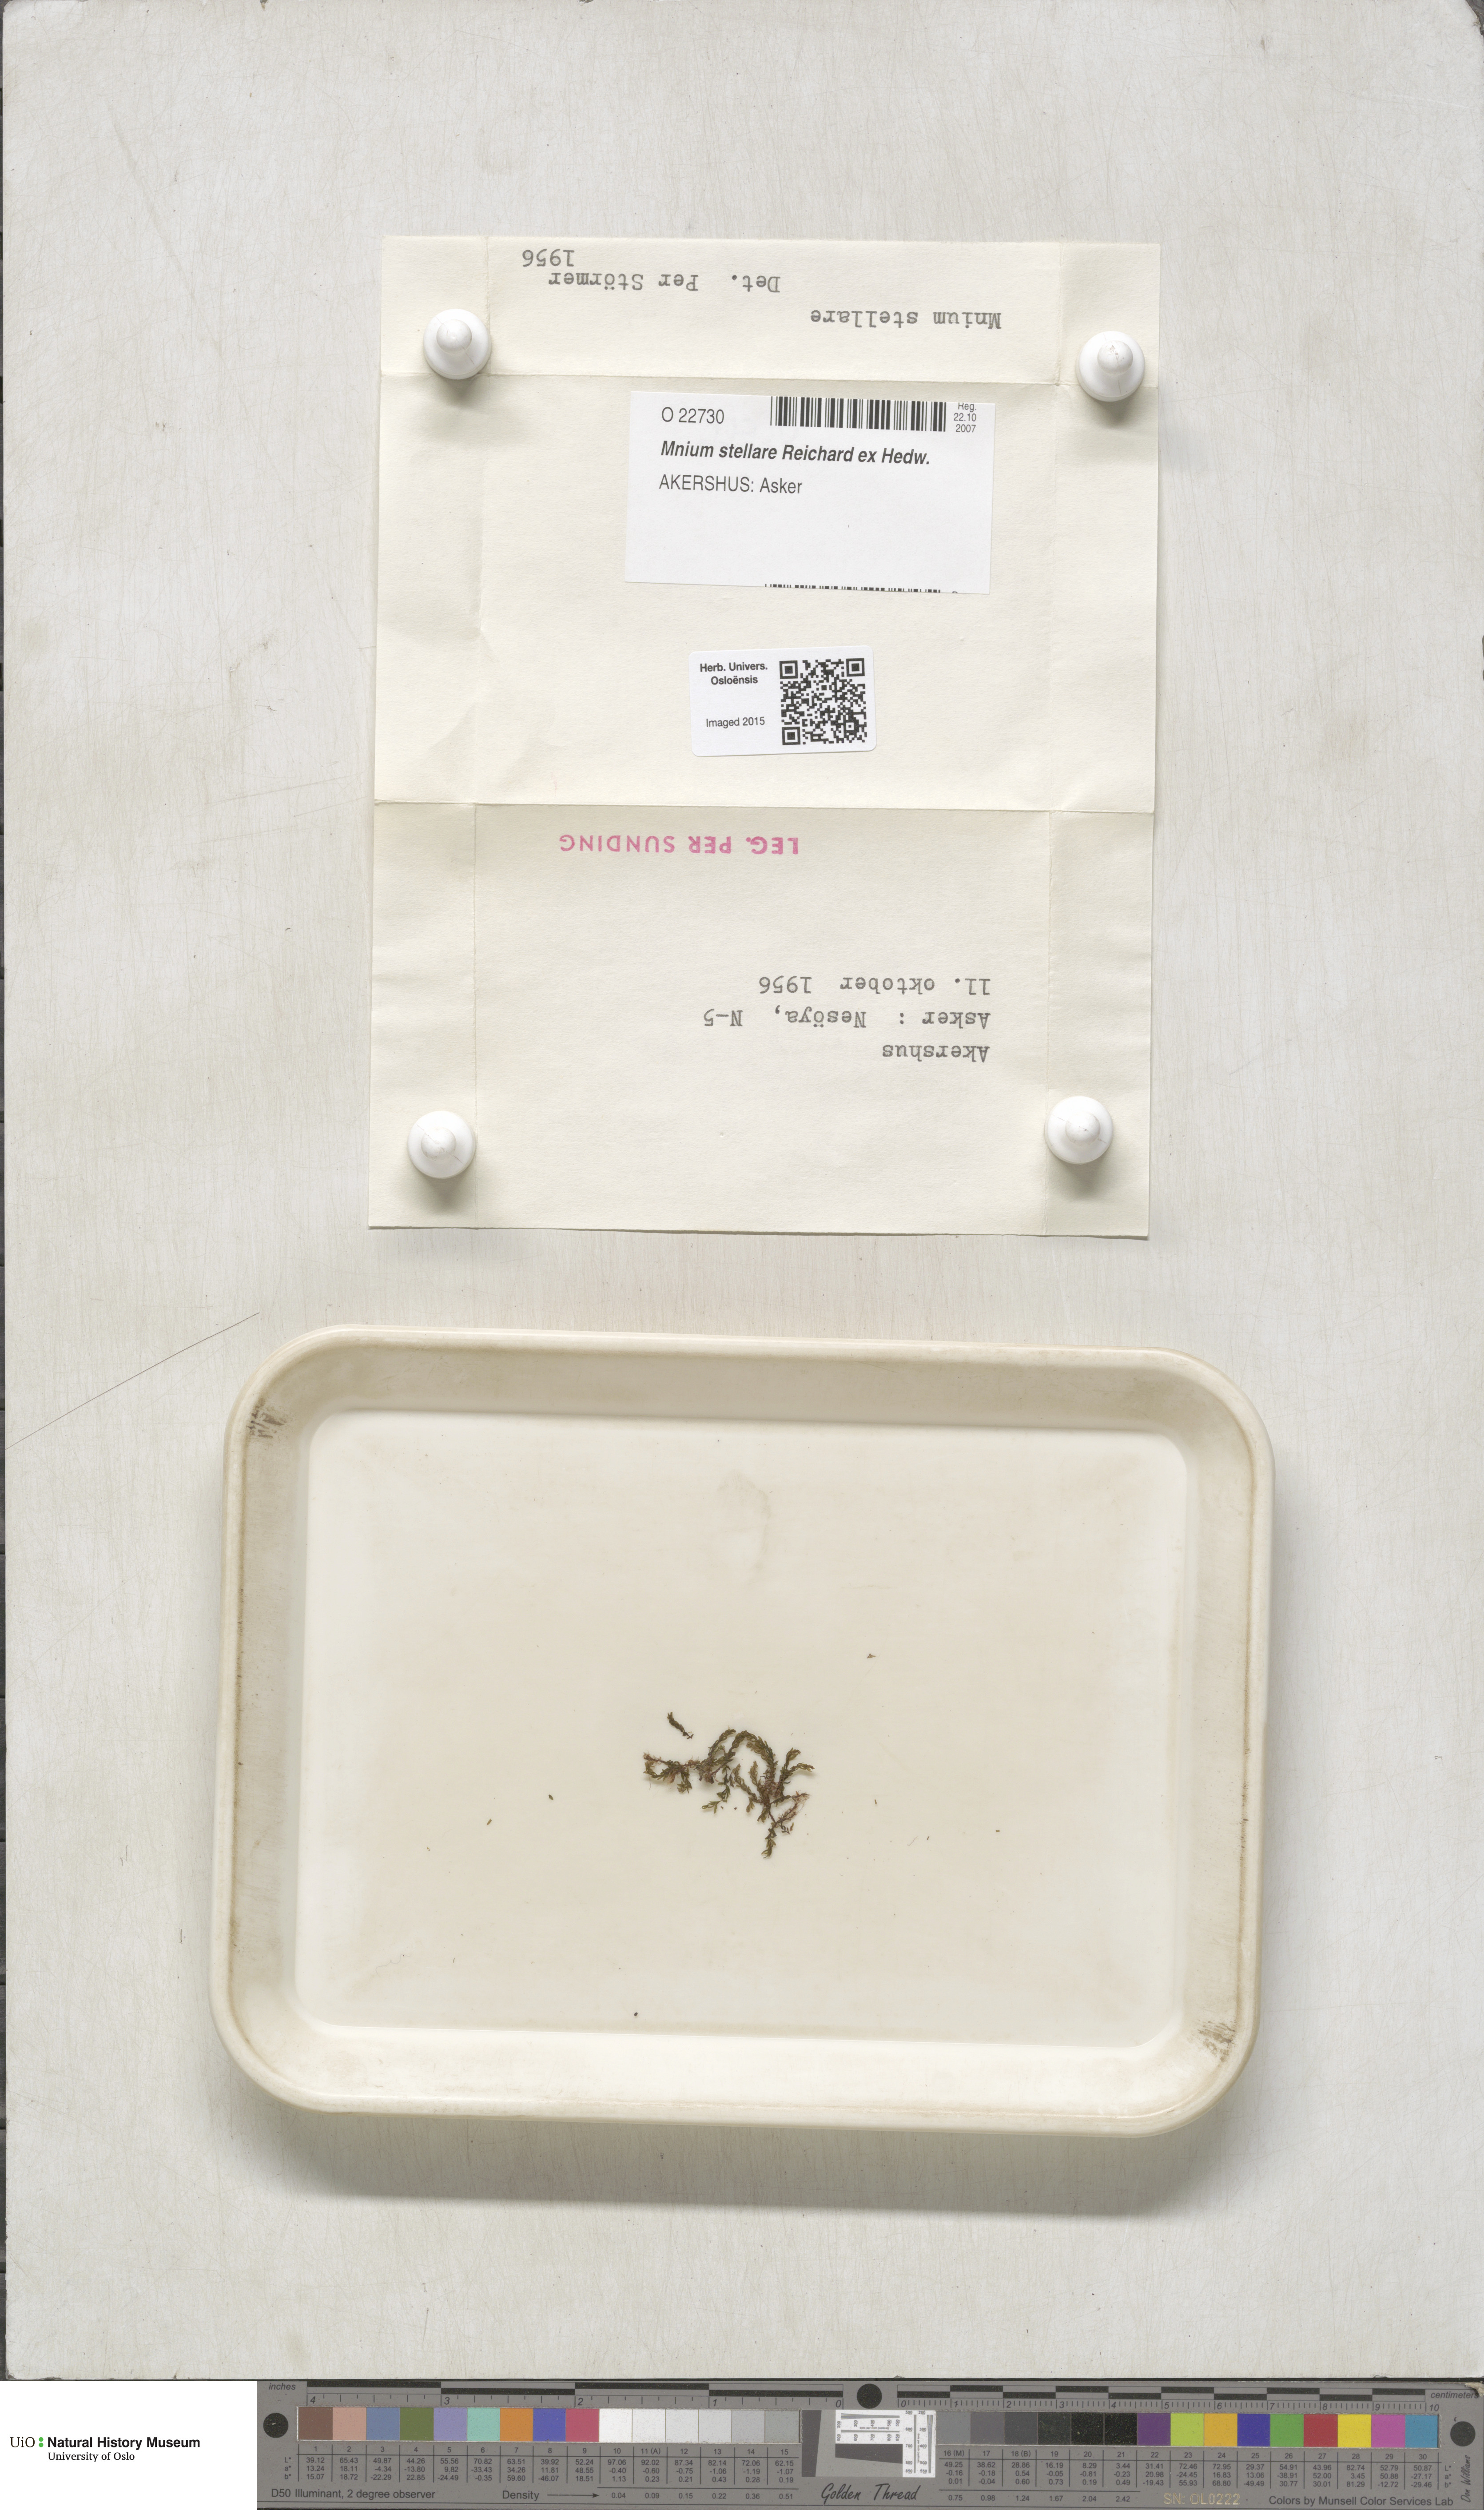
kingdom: Plantae
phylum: Bryophyta
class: Bryopsida
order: Bryales
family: Mniaceae
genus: Mnium
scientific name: Mnium stellare
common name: Star leafy moss
